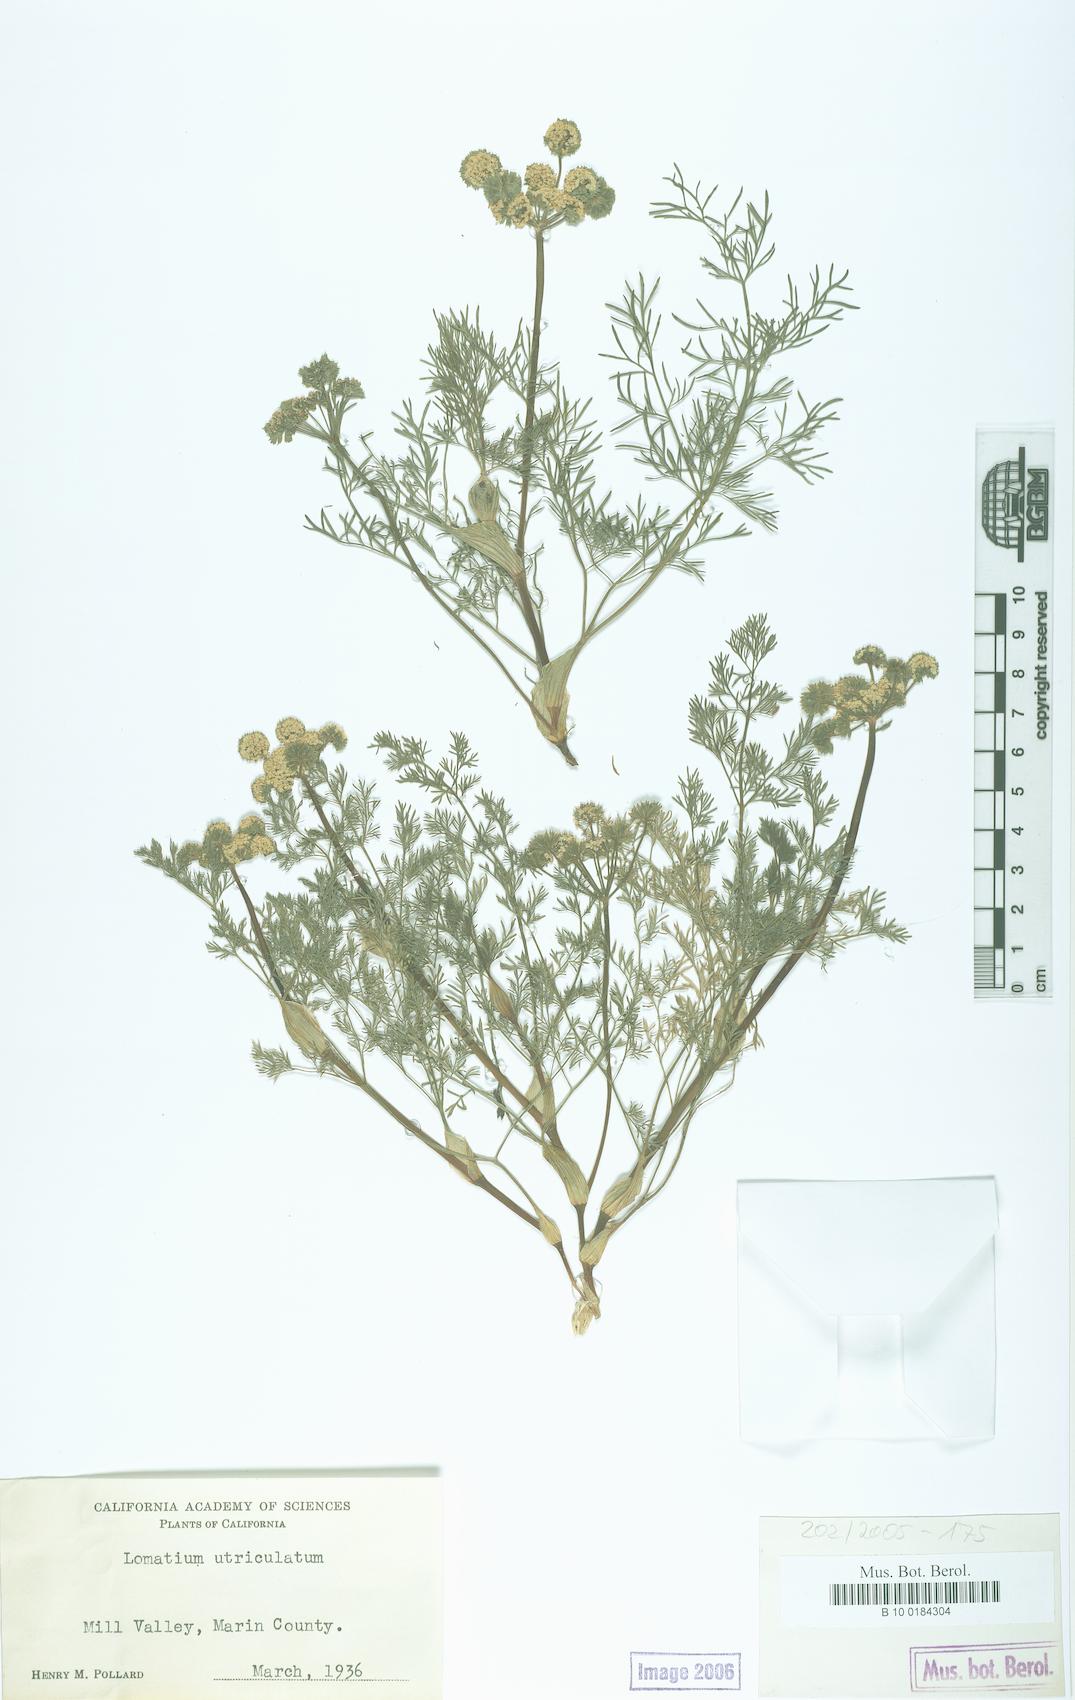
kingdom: Plantae
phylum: Tracheophyta
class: Magnoliopsida
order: Apiales
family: Apiaceae
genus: Lomatium
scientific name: Lomatium utriculatum
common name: Fine-leaf desert-parsley
